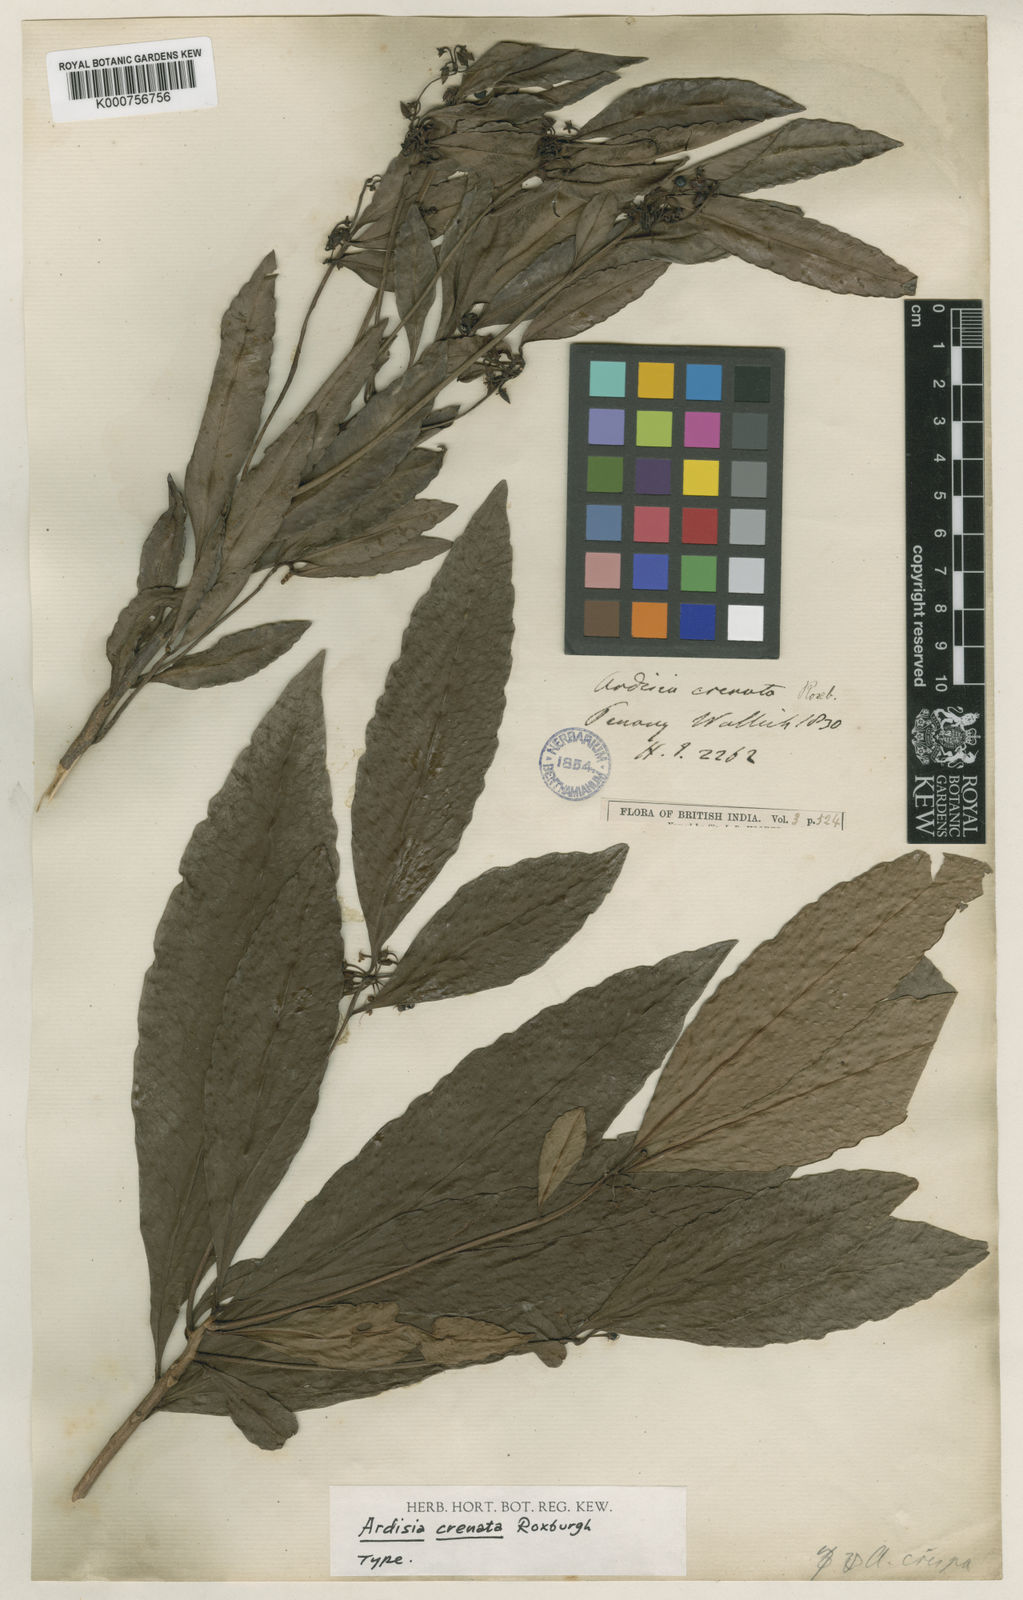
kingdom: Plantae
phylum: Tracheophyta
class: Magnoliopsida
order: Ericales
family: Primulaceae
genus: Ardisia
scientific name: Ardisia
